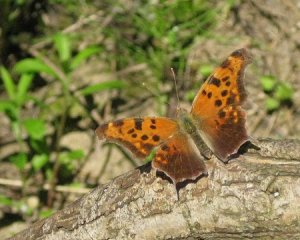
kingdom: Animalia
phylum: Arthropoda
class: Insecta
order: Lepidoptera
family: Nymphalidae
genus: Polygonia
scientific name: Polygonia interrogationis
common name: Question Mark
